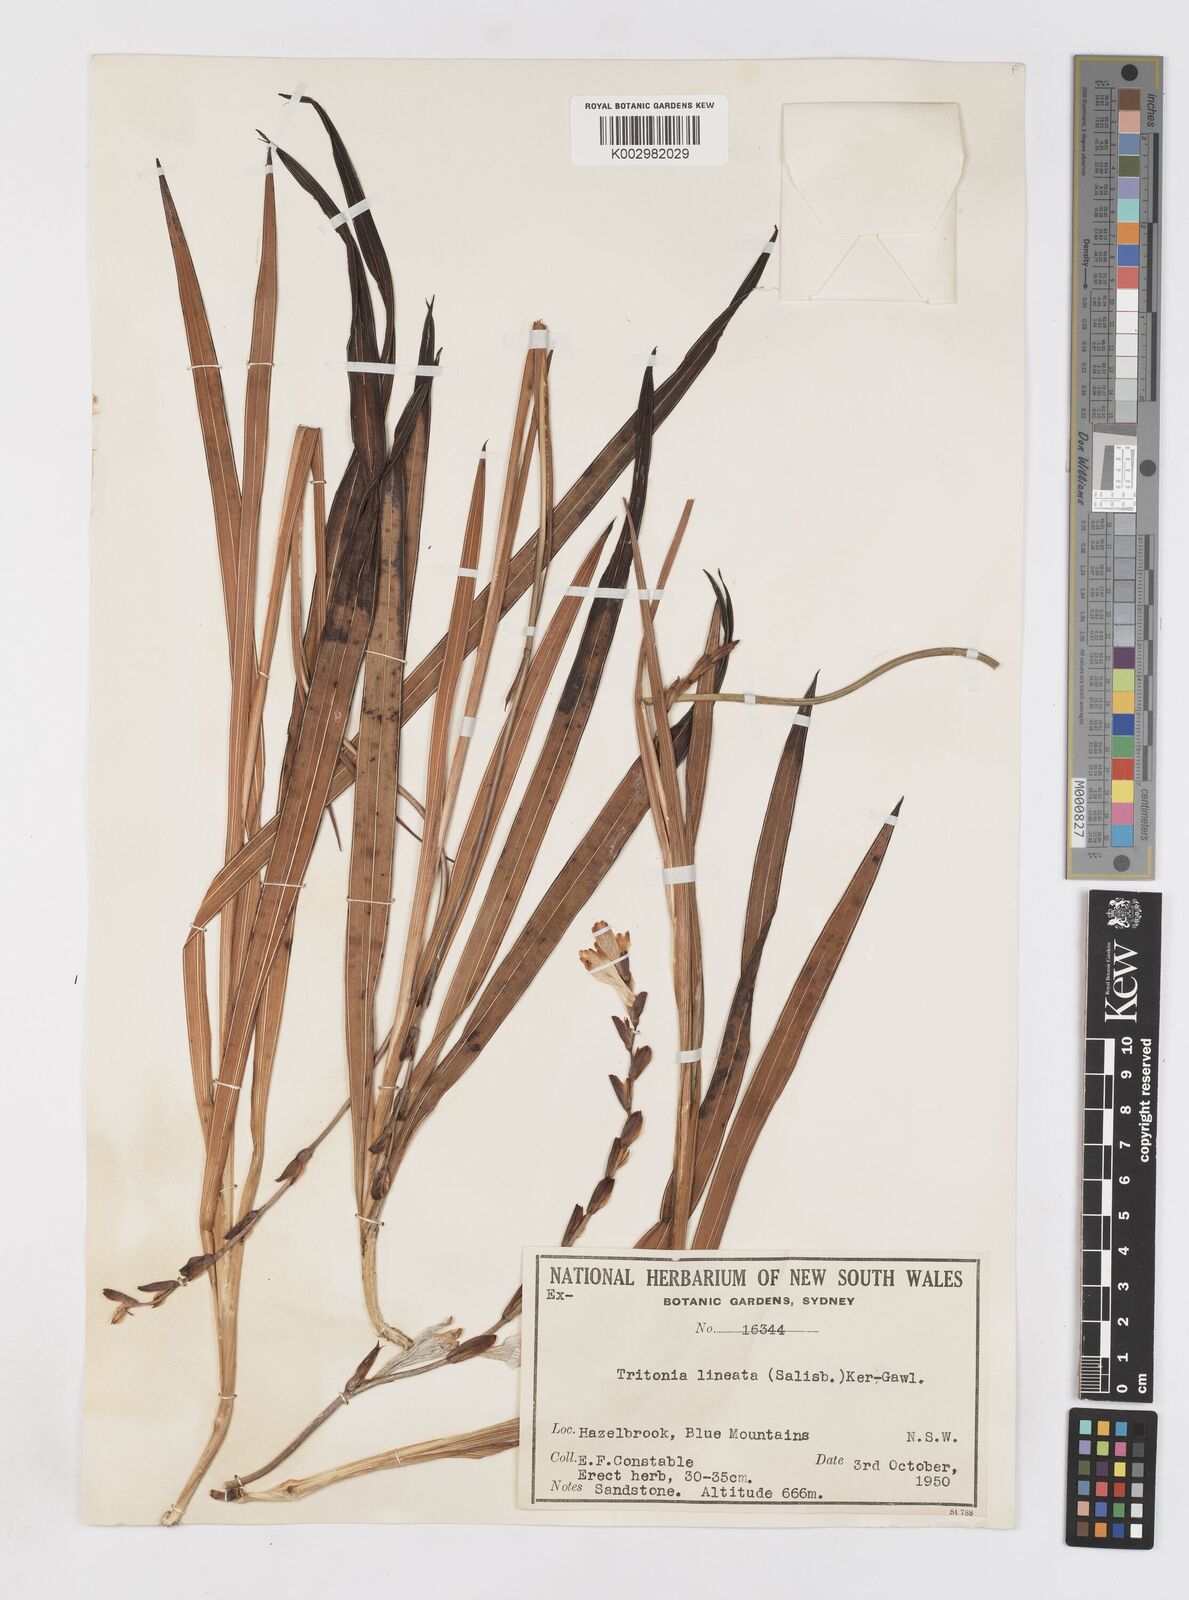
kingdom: Plantae
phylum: Tracheophyta
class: Liliopsida
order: Asparagales
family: Iridaceae
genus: Tritonia
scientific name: Tritonia gladiolaris
